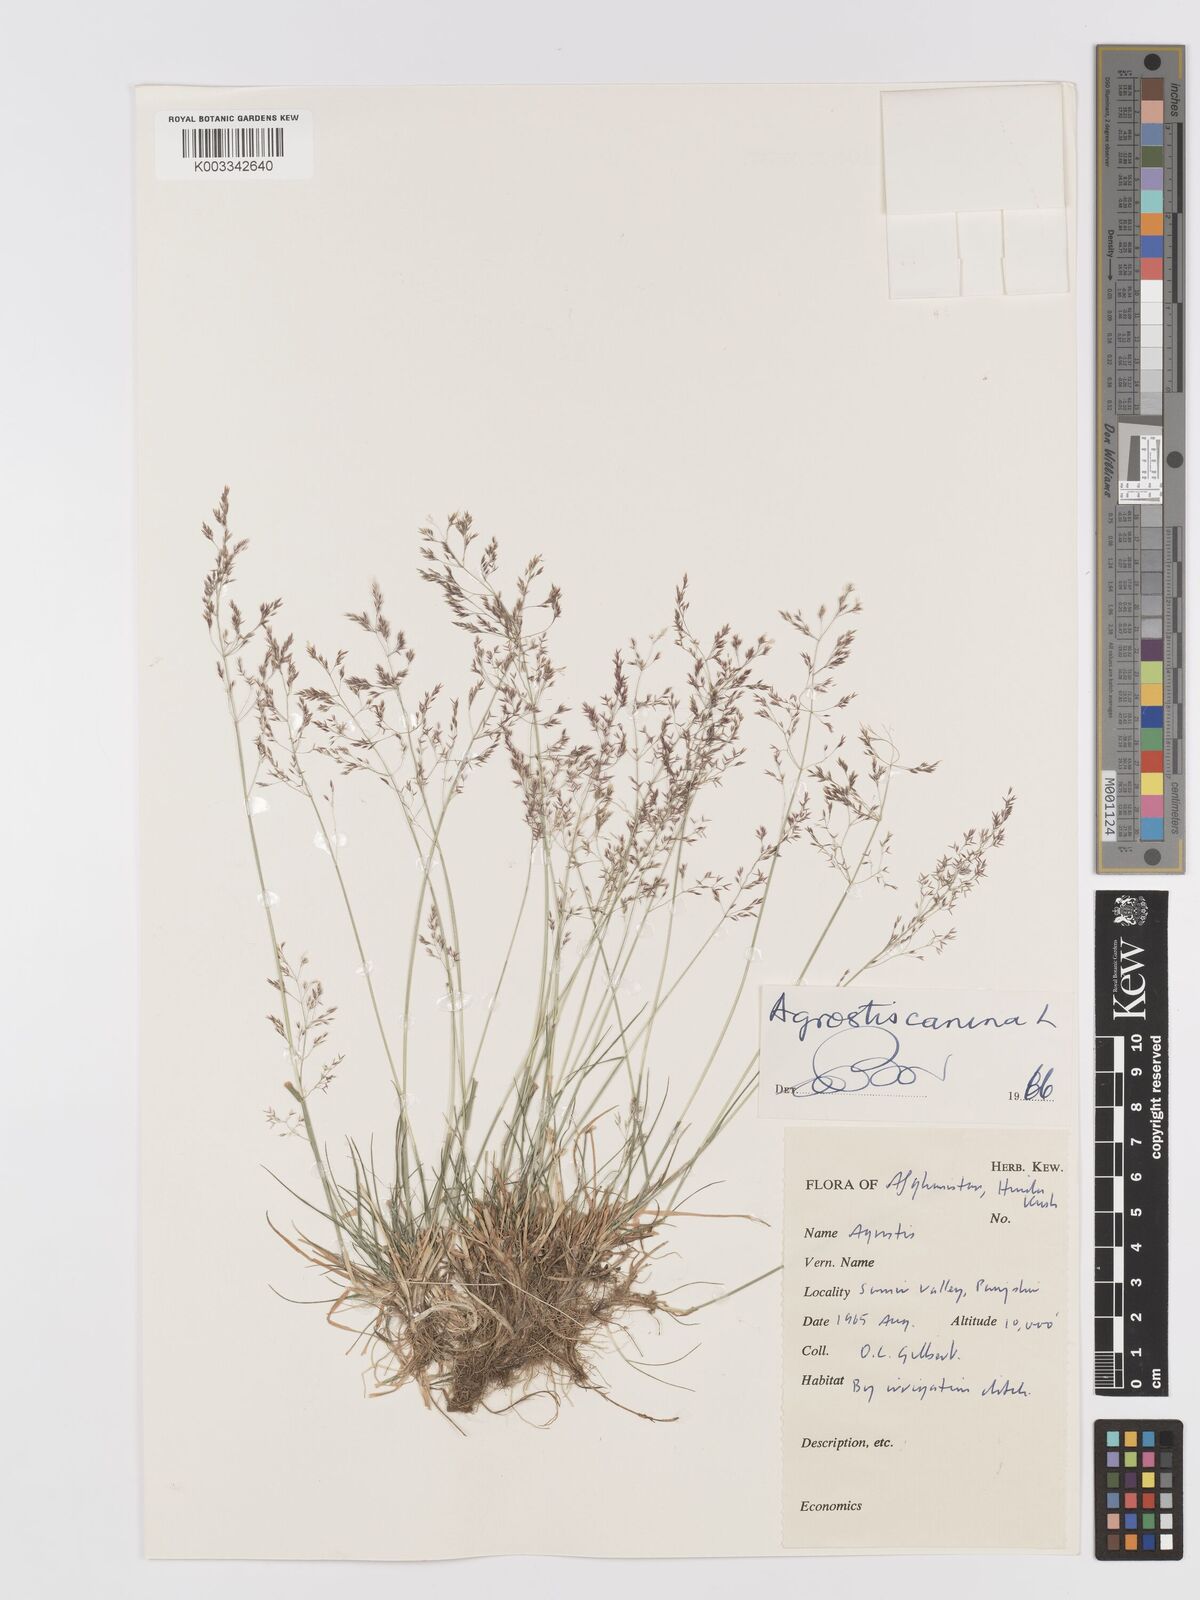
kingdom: Plantae
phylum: Tracheophyta
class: Liliopsida
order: Poales
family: Poaceae
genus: Agrostis
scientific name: Agrostis canina
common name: Velvet bent
